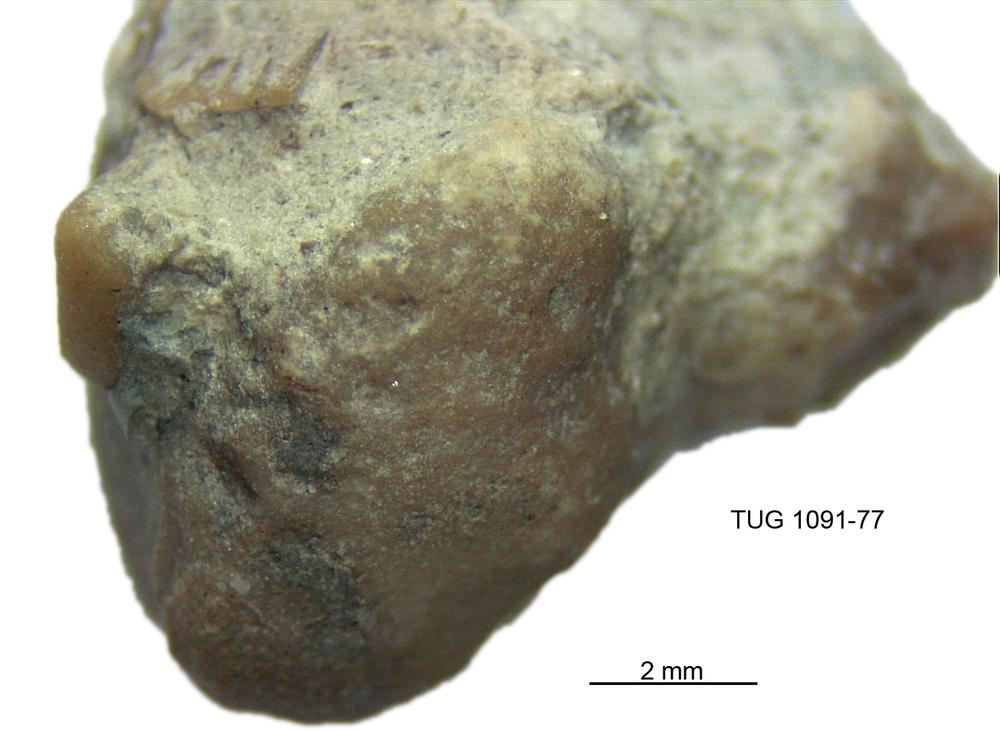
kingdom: Animalia
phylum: Bryozoa
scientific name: Bryozoa
